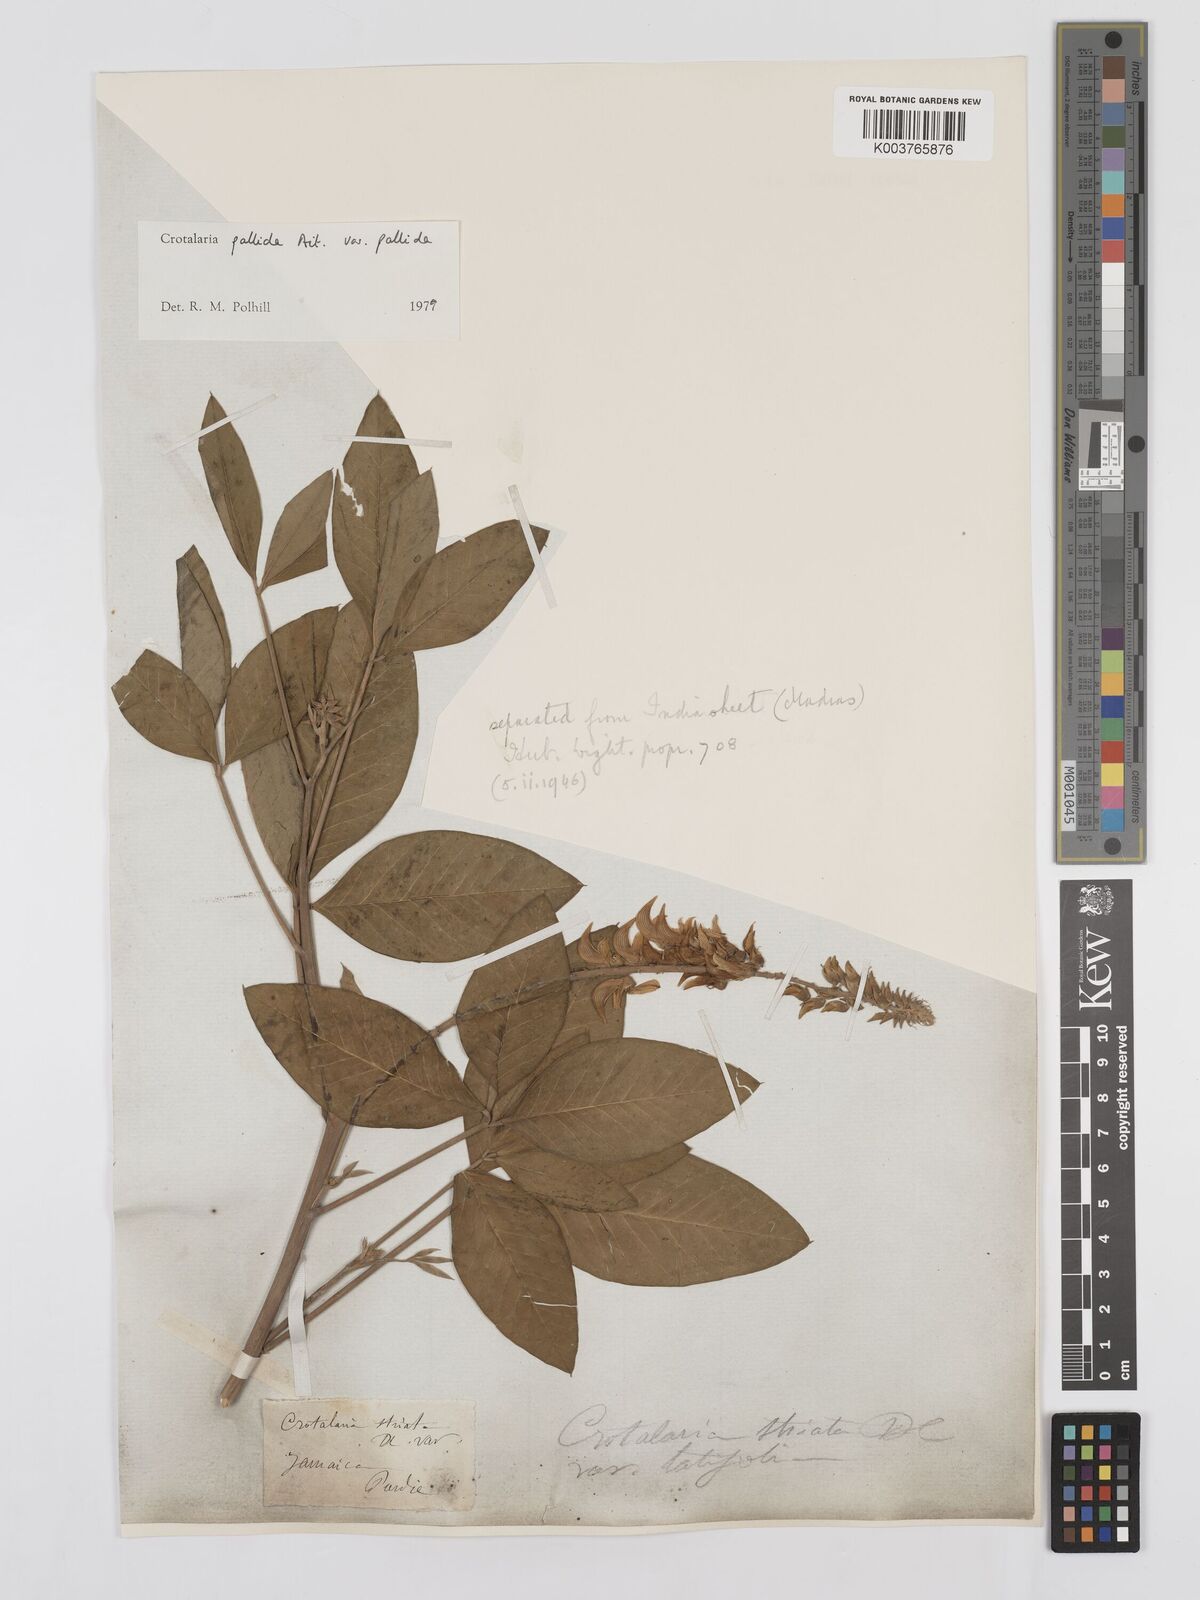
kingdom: Plantae
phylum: Tracheophyta
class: Magnoliopsida
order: Fabales
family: Fabaceae
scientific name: Fabaceae
